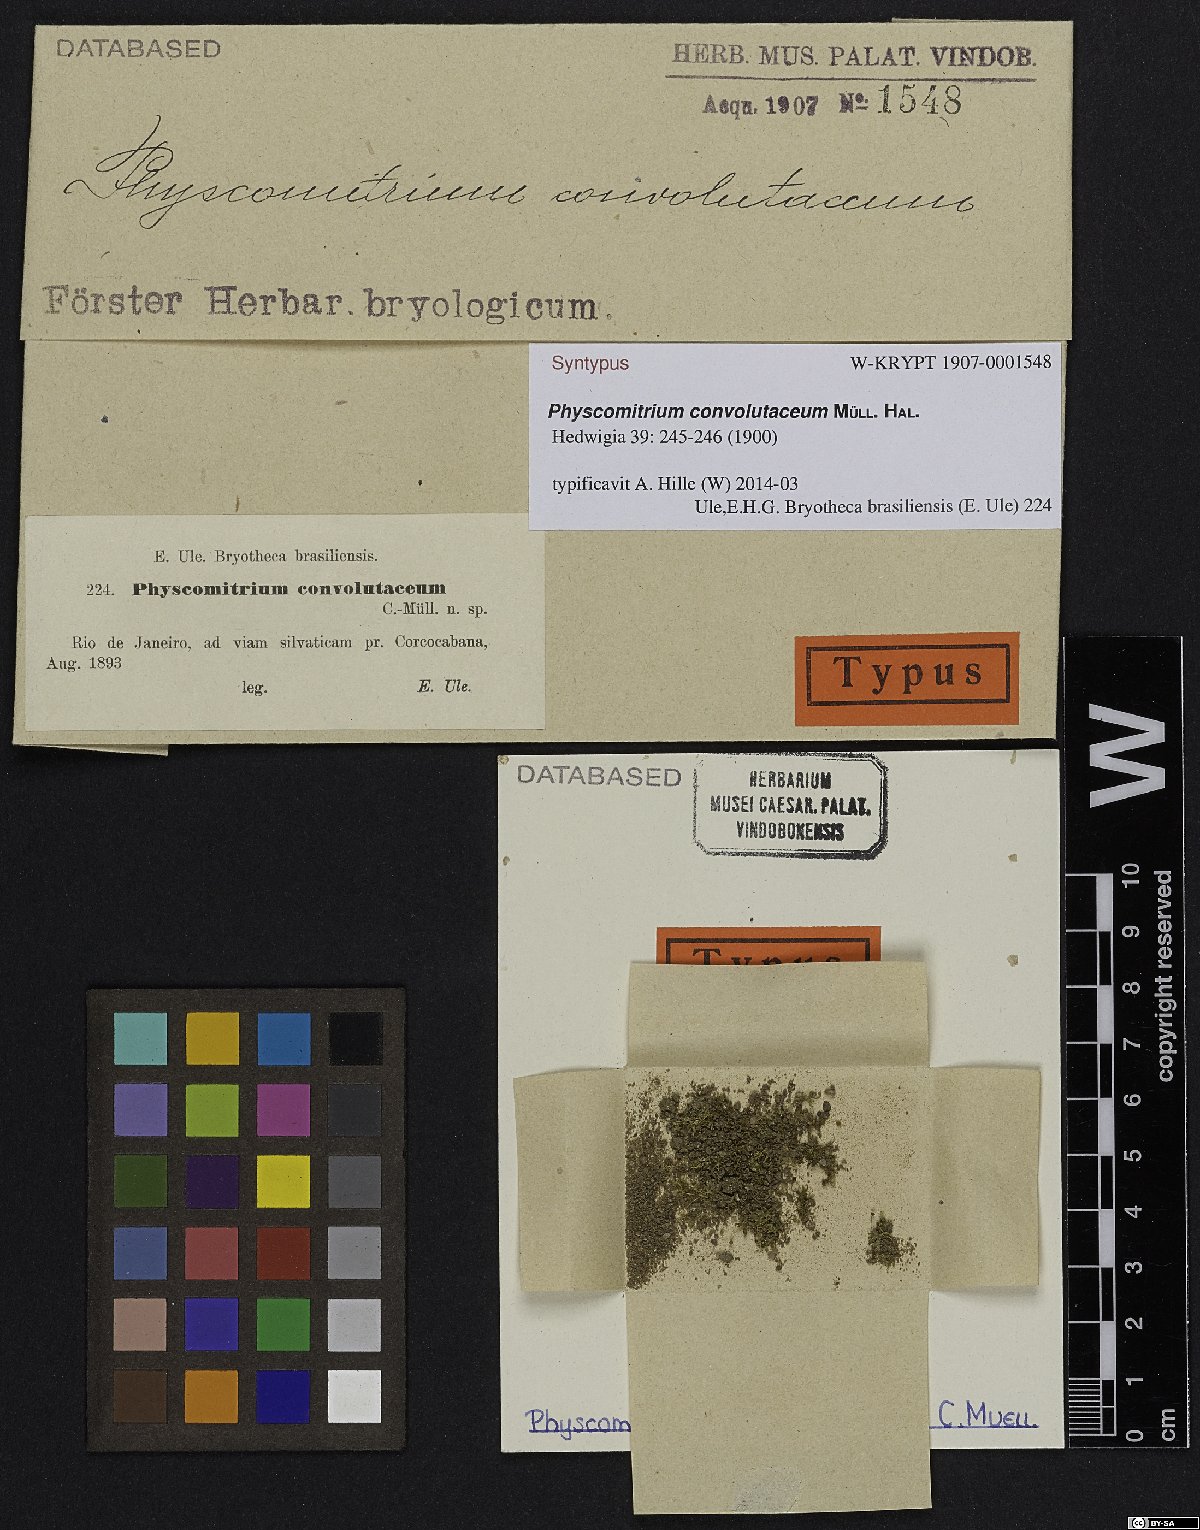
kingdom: Plantae
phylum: Bryophyta
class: Bryopsida
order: Funariales
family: Funariaceae
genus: Physcomitrium
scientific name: Physcomitrium thieleanum
